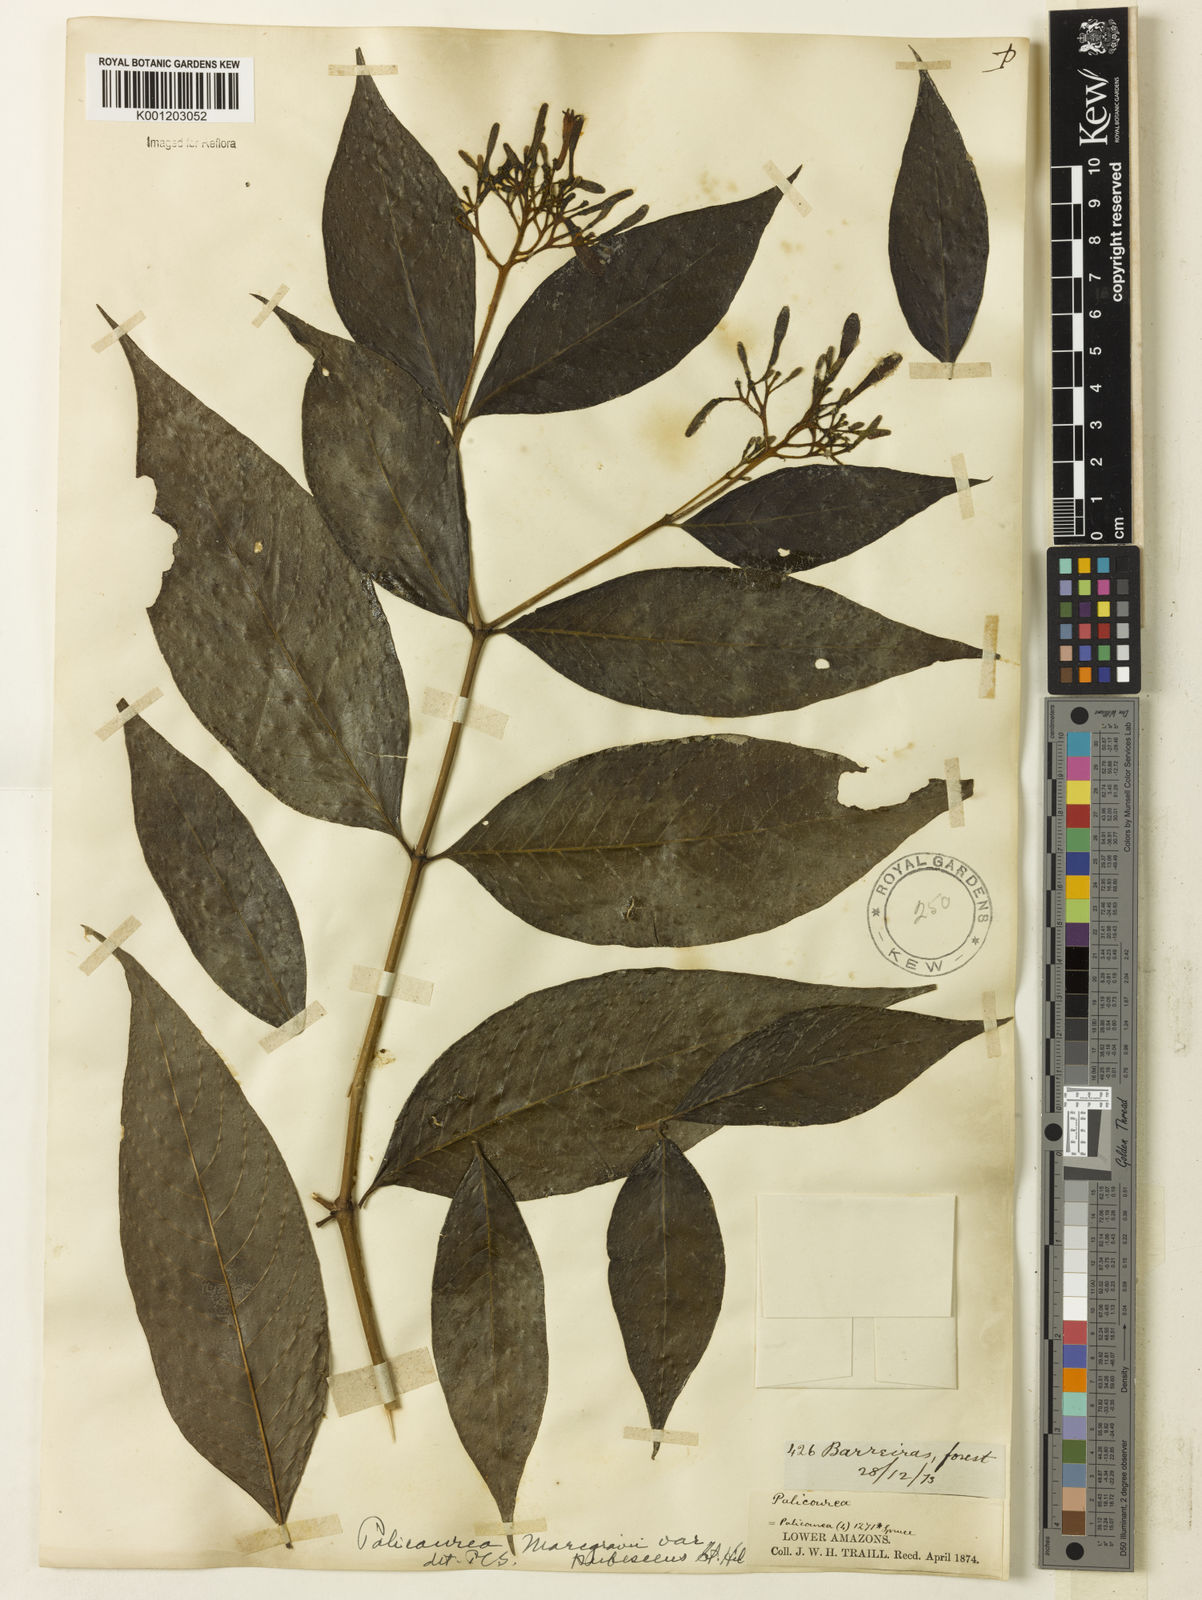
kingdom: Plantae
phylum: Tracheophyta
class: Magnoliopsida
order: Gentianales
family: Rubiaceae
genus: Palicourea
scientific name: Palicourea marcgravii
